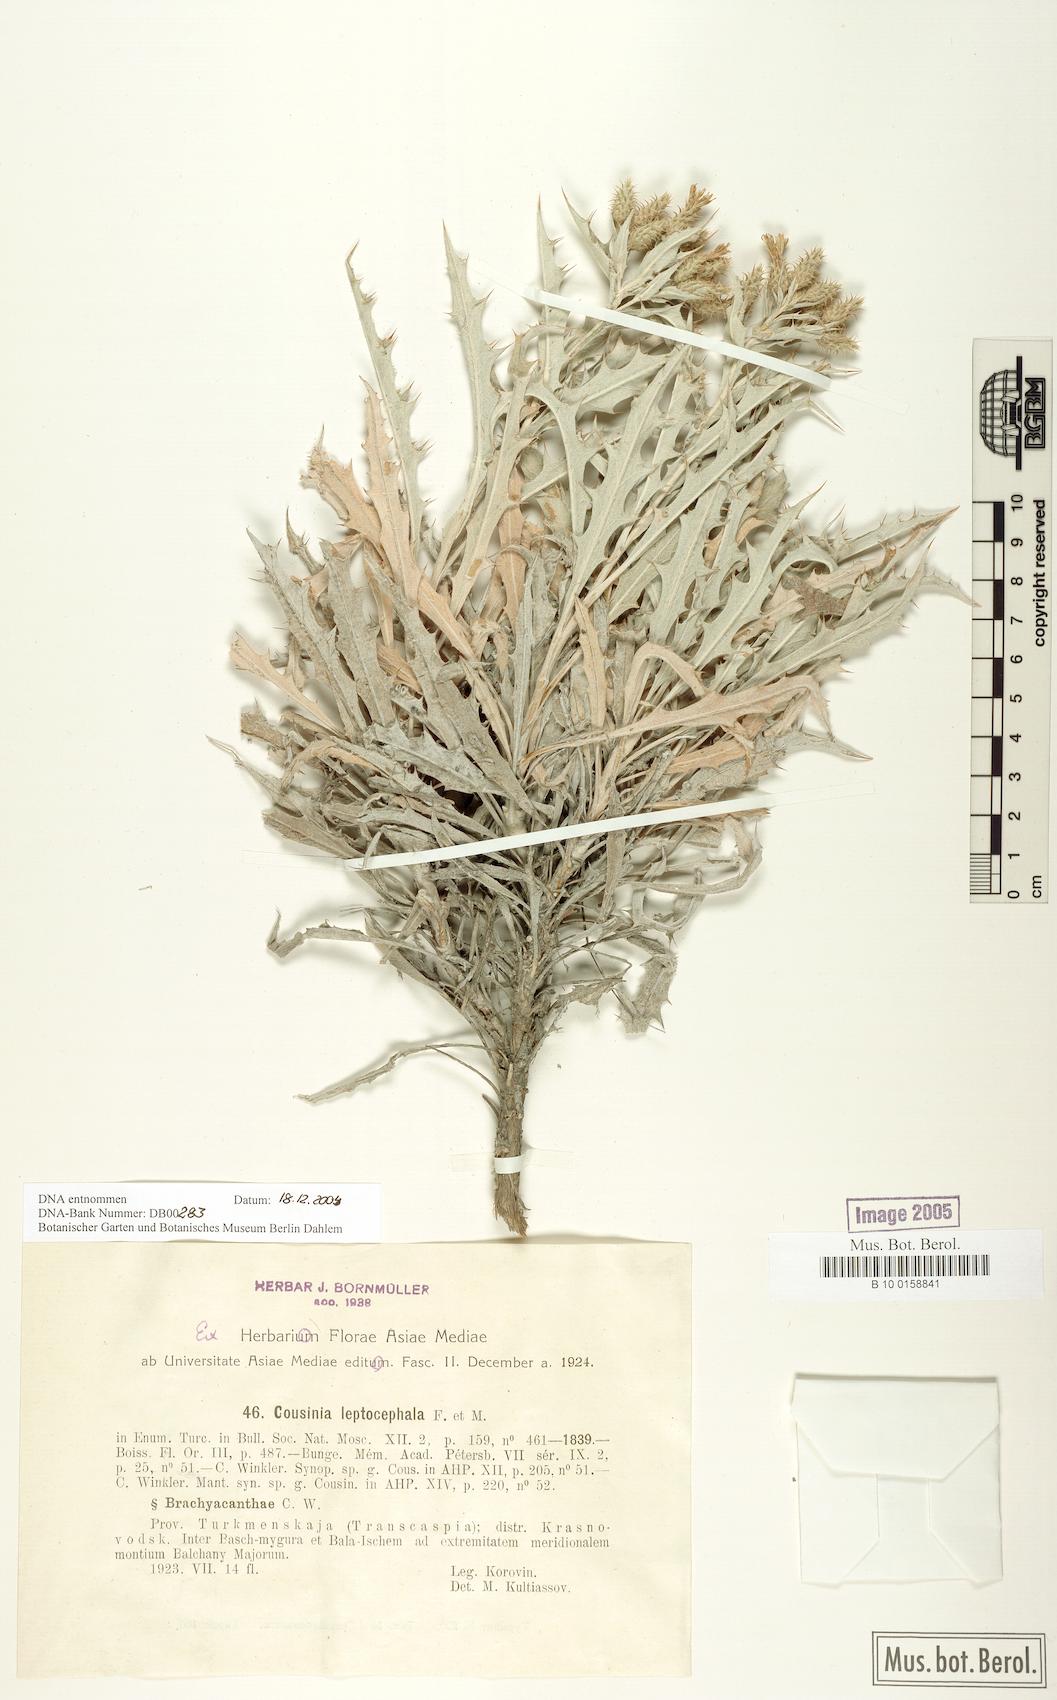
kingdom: Plantae
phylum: Tracheophyta
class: Magnoliopsida
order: Asterales
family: Asteraceae
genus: Cousinia
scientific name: Cousinia leptocephala
